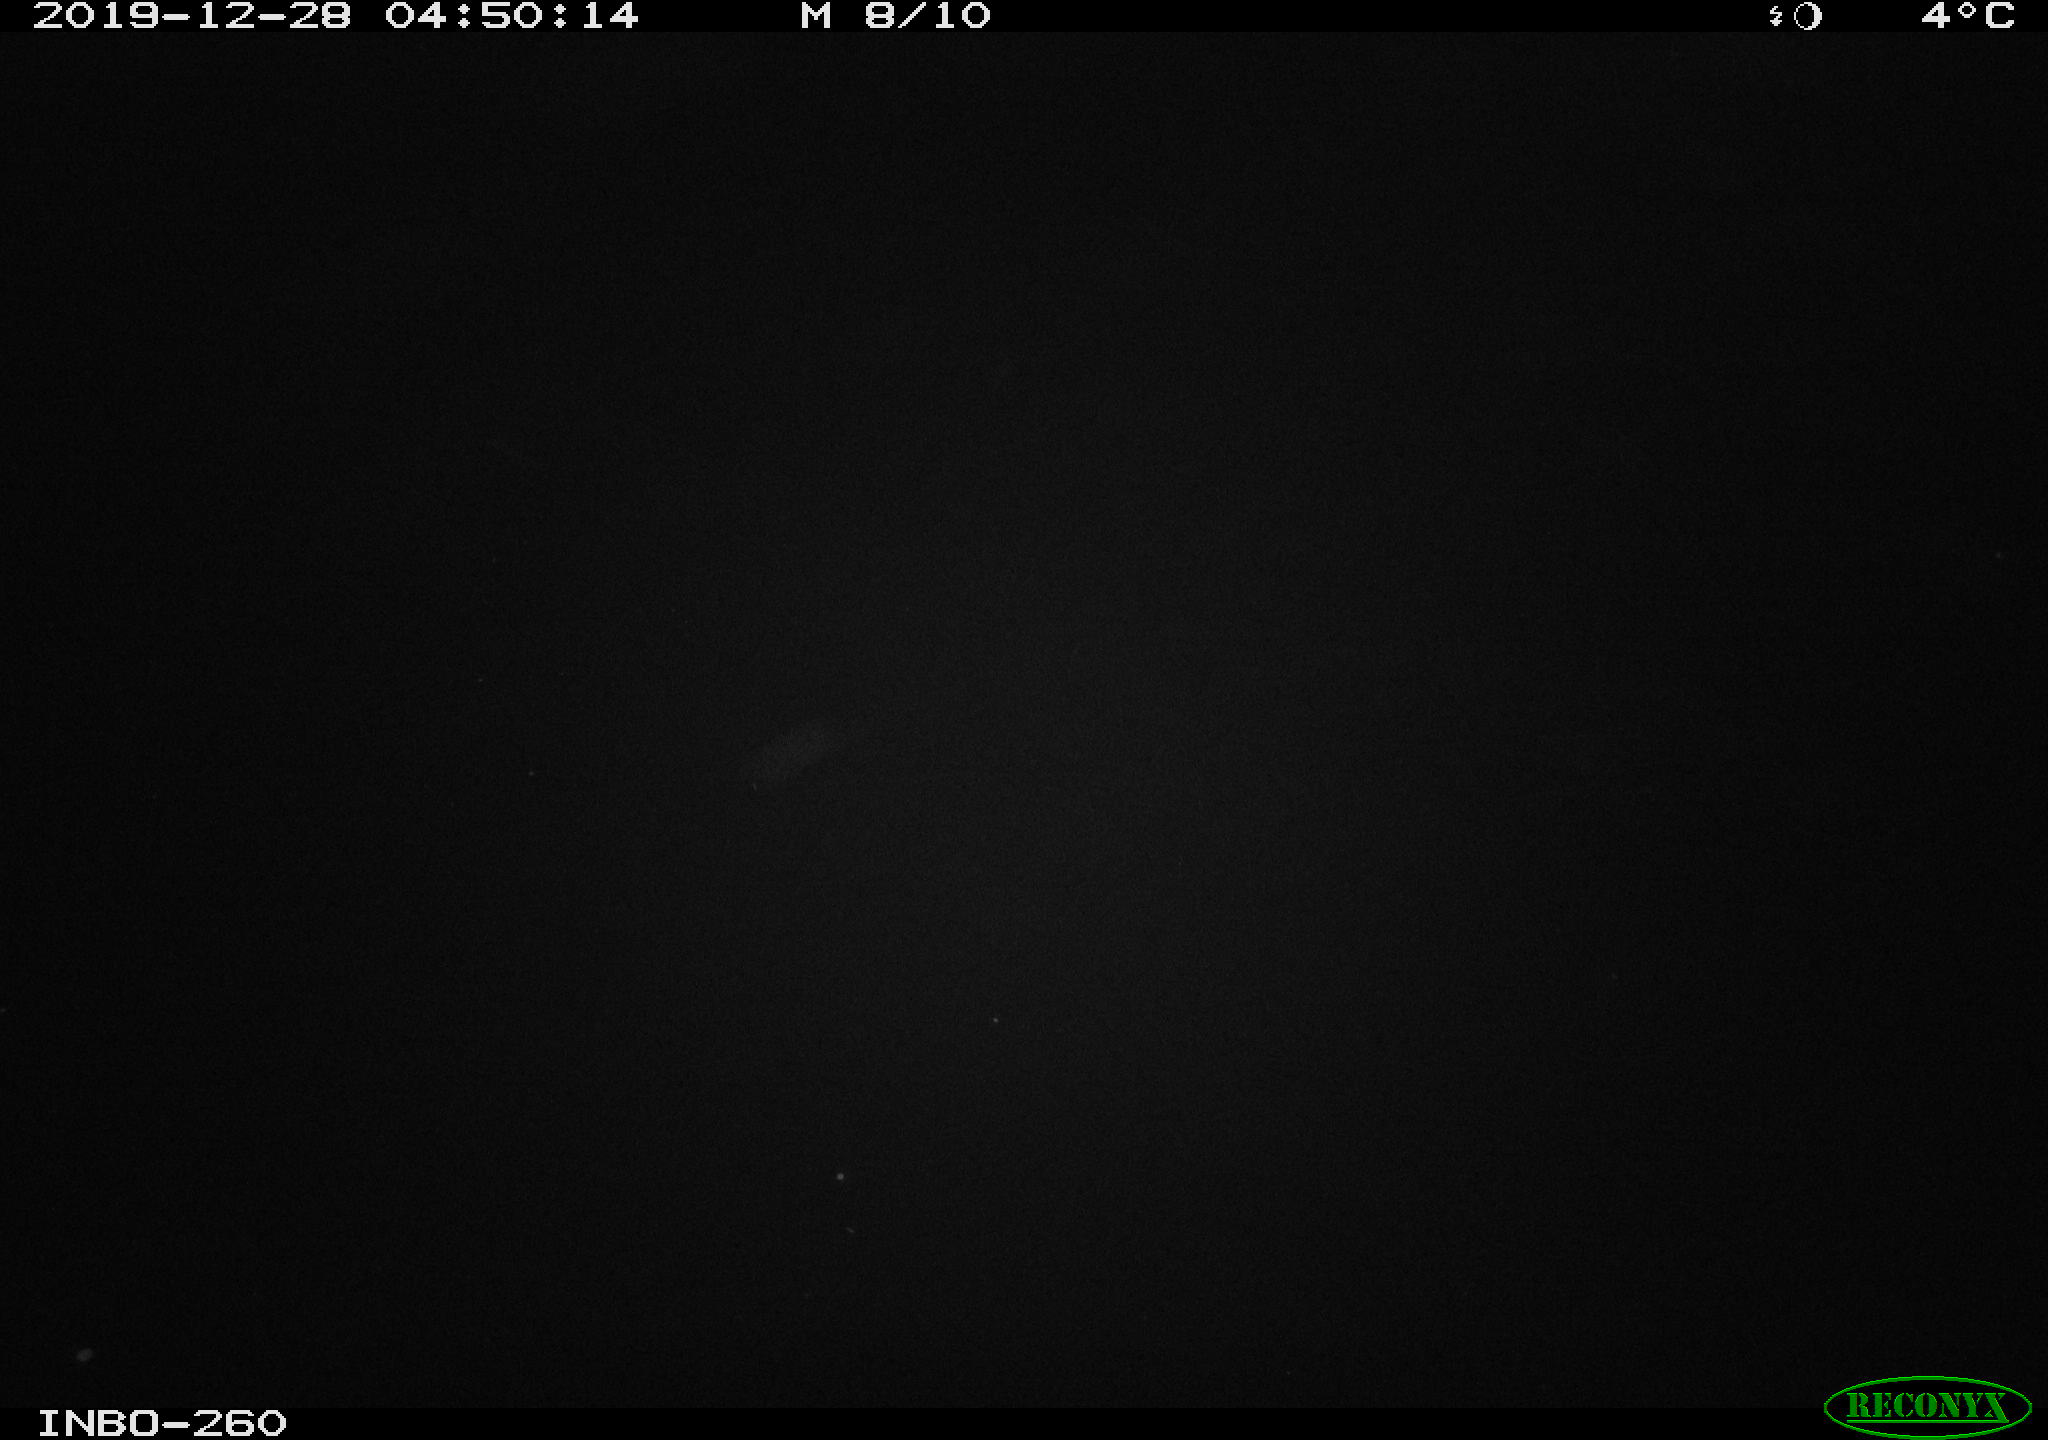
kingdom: Animalia
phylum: Chordata
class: Aves
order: Anseriformes
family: Anatidae
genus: Anas
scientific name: Anas platyrhynchos
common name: Mallard
